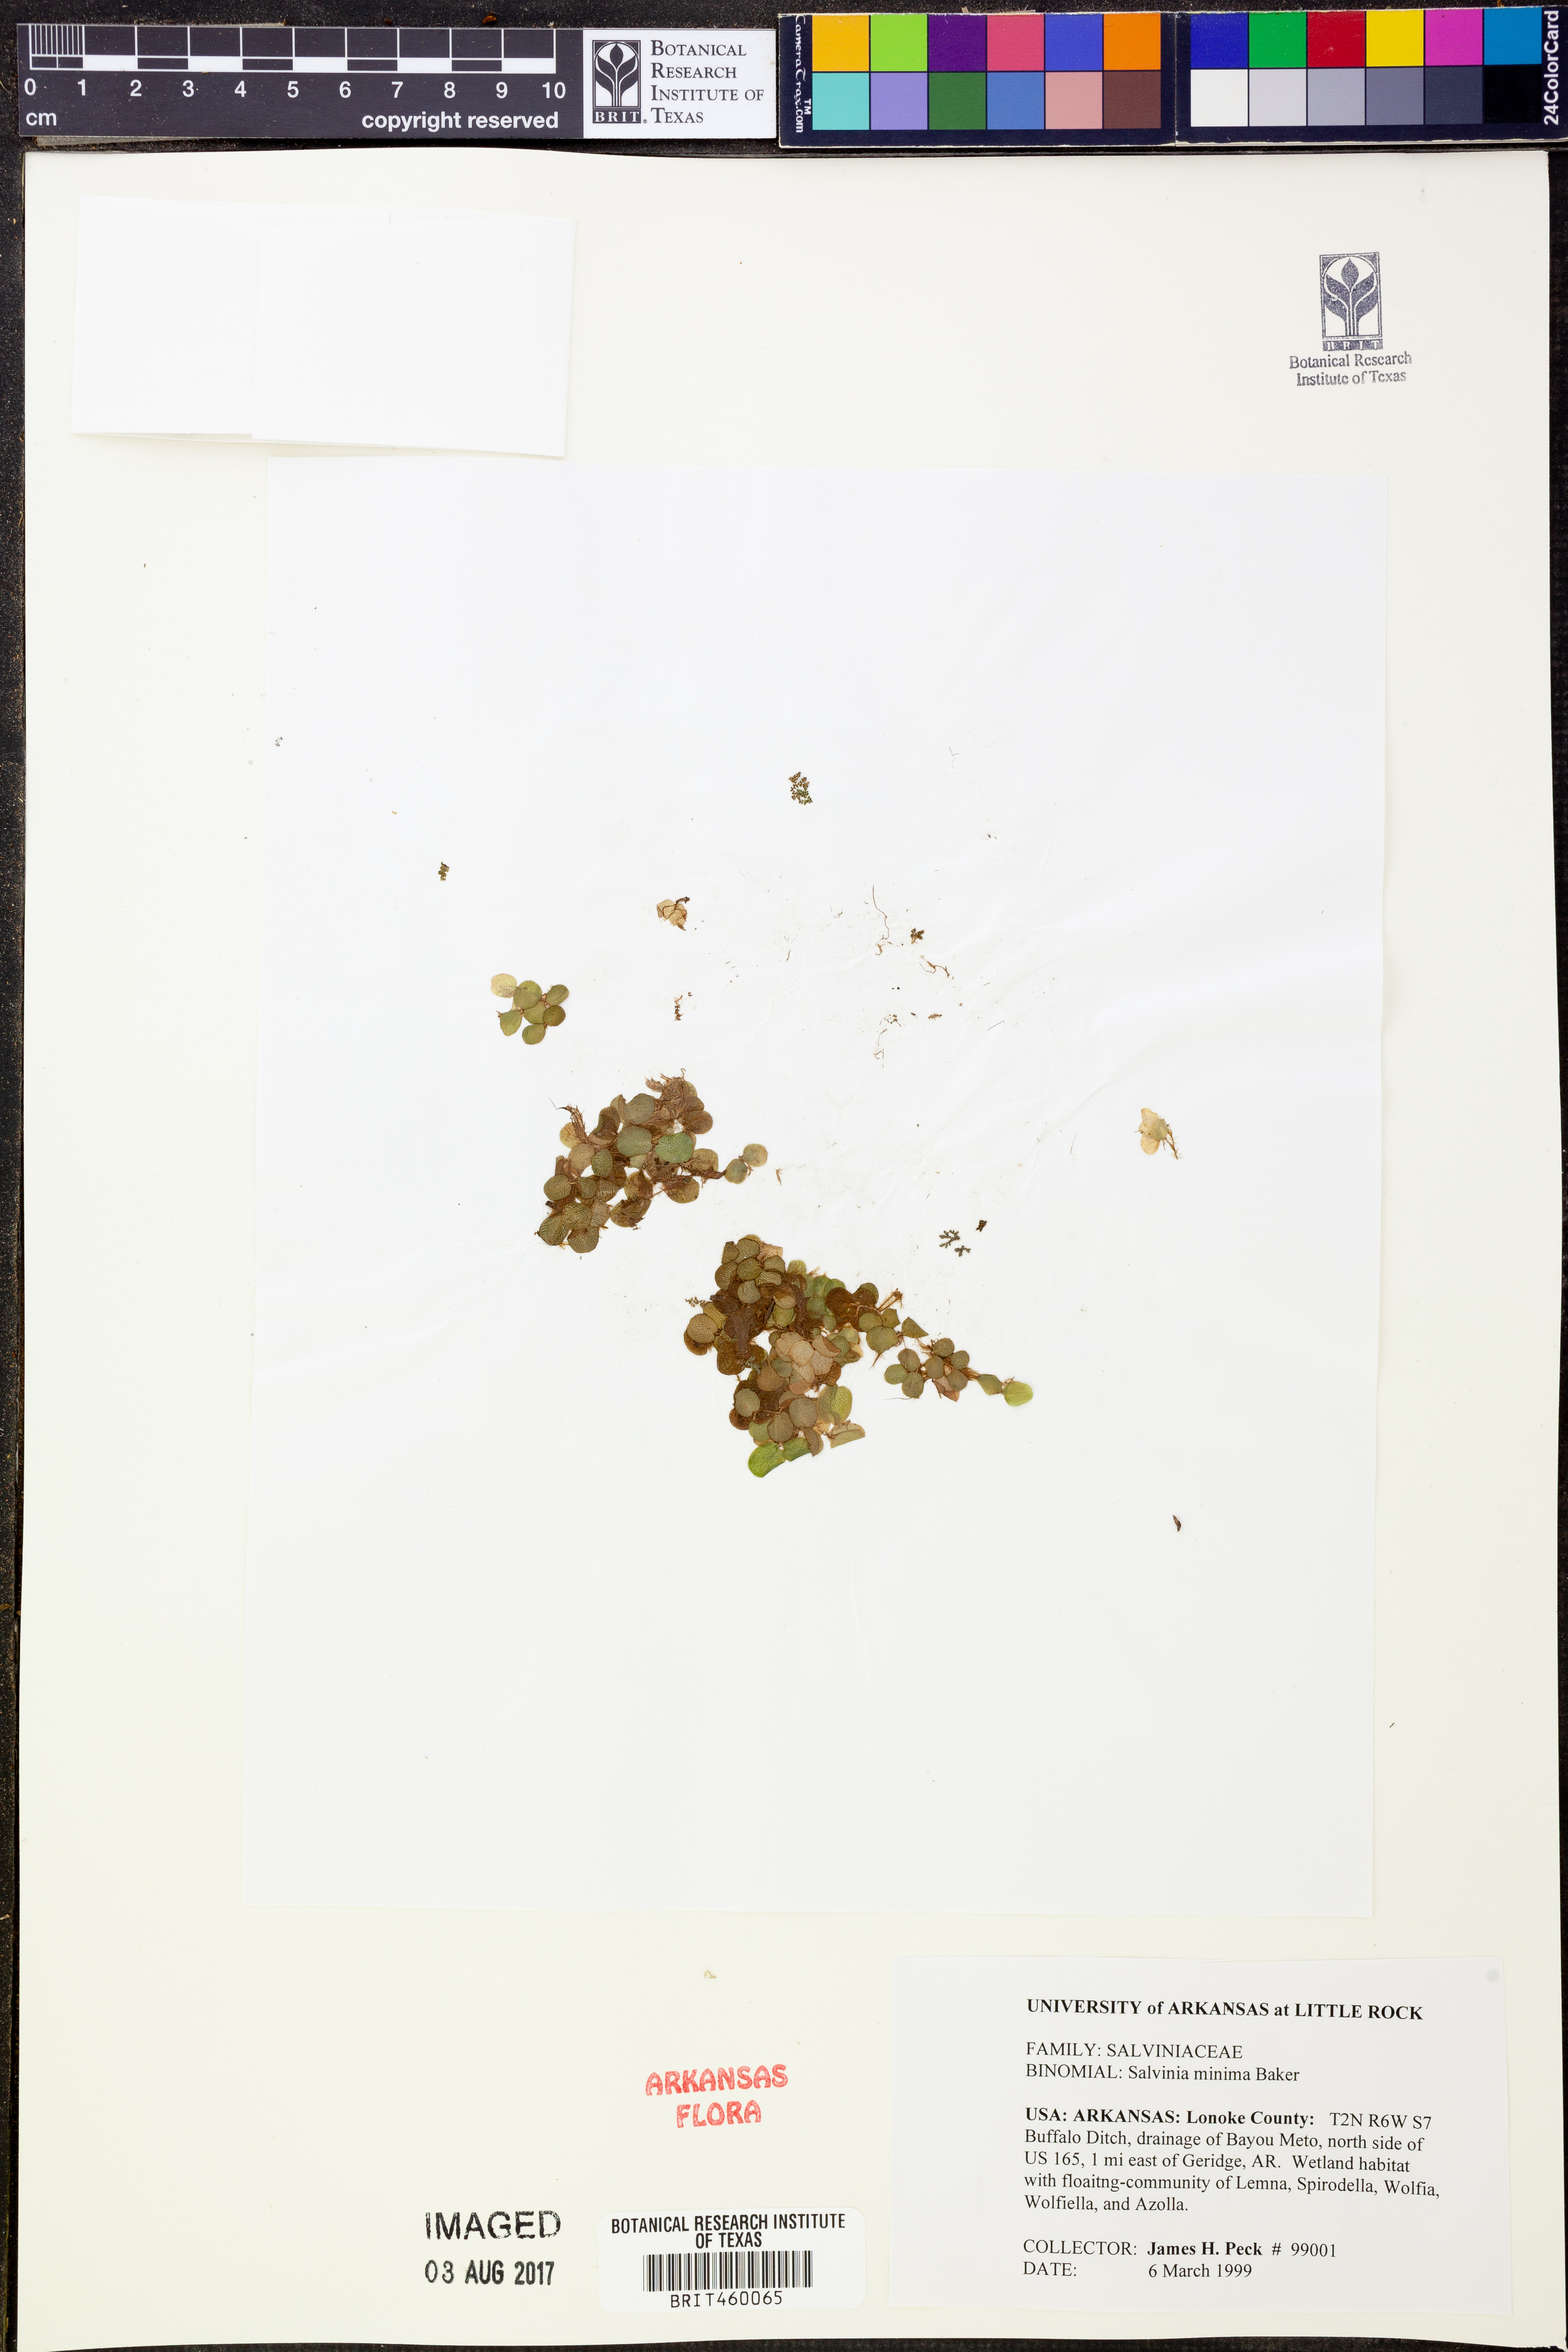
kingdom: Plantae
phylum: Tracheophyta
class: Polypodiopsida
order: Salviniales
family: Salviniaceae
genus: Salvinia
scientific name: Salvinia minima
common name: Water spangles
